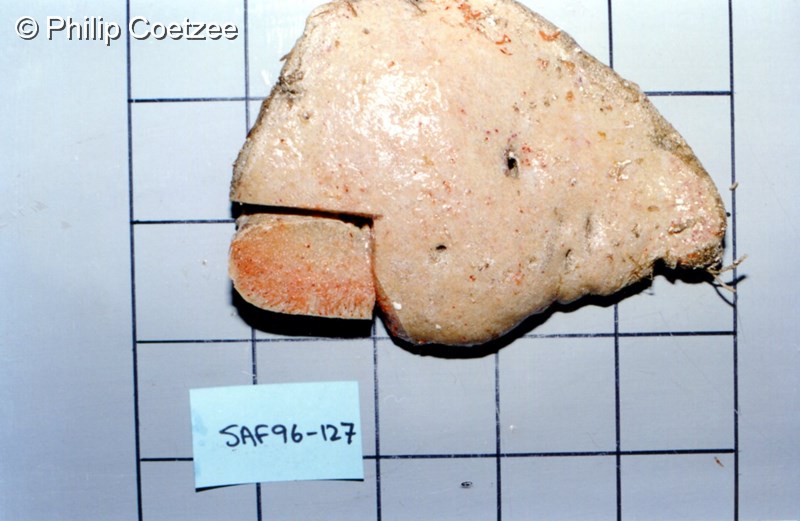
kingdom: Animalia
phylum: Chordata
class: Ascidiacea
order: Aplousobranchia
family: Protopolyclinidae
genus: Protopolyclinum
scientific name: Protopolyclinum
